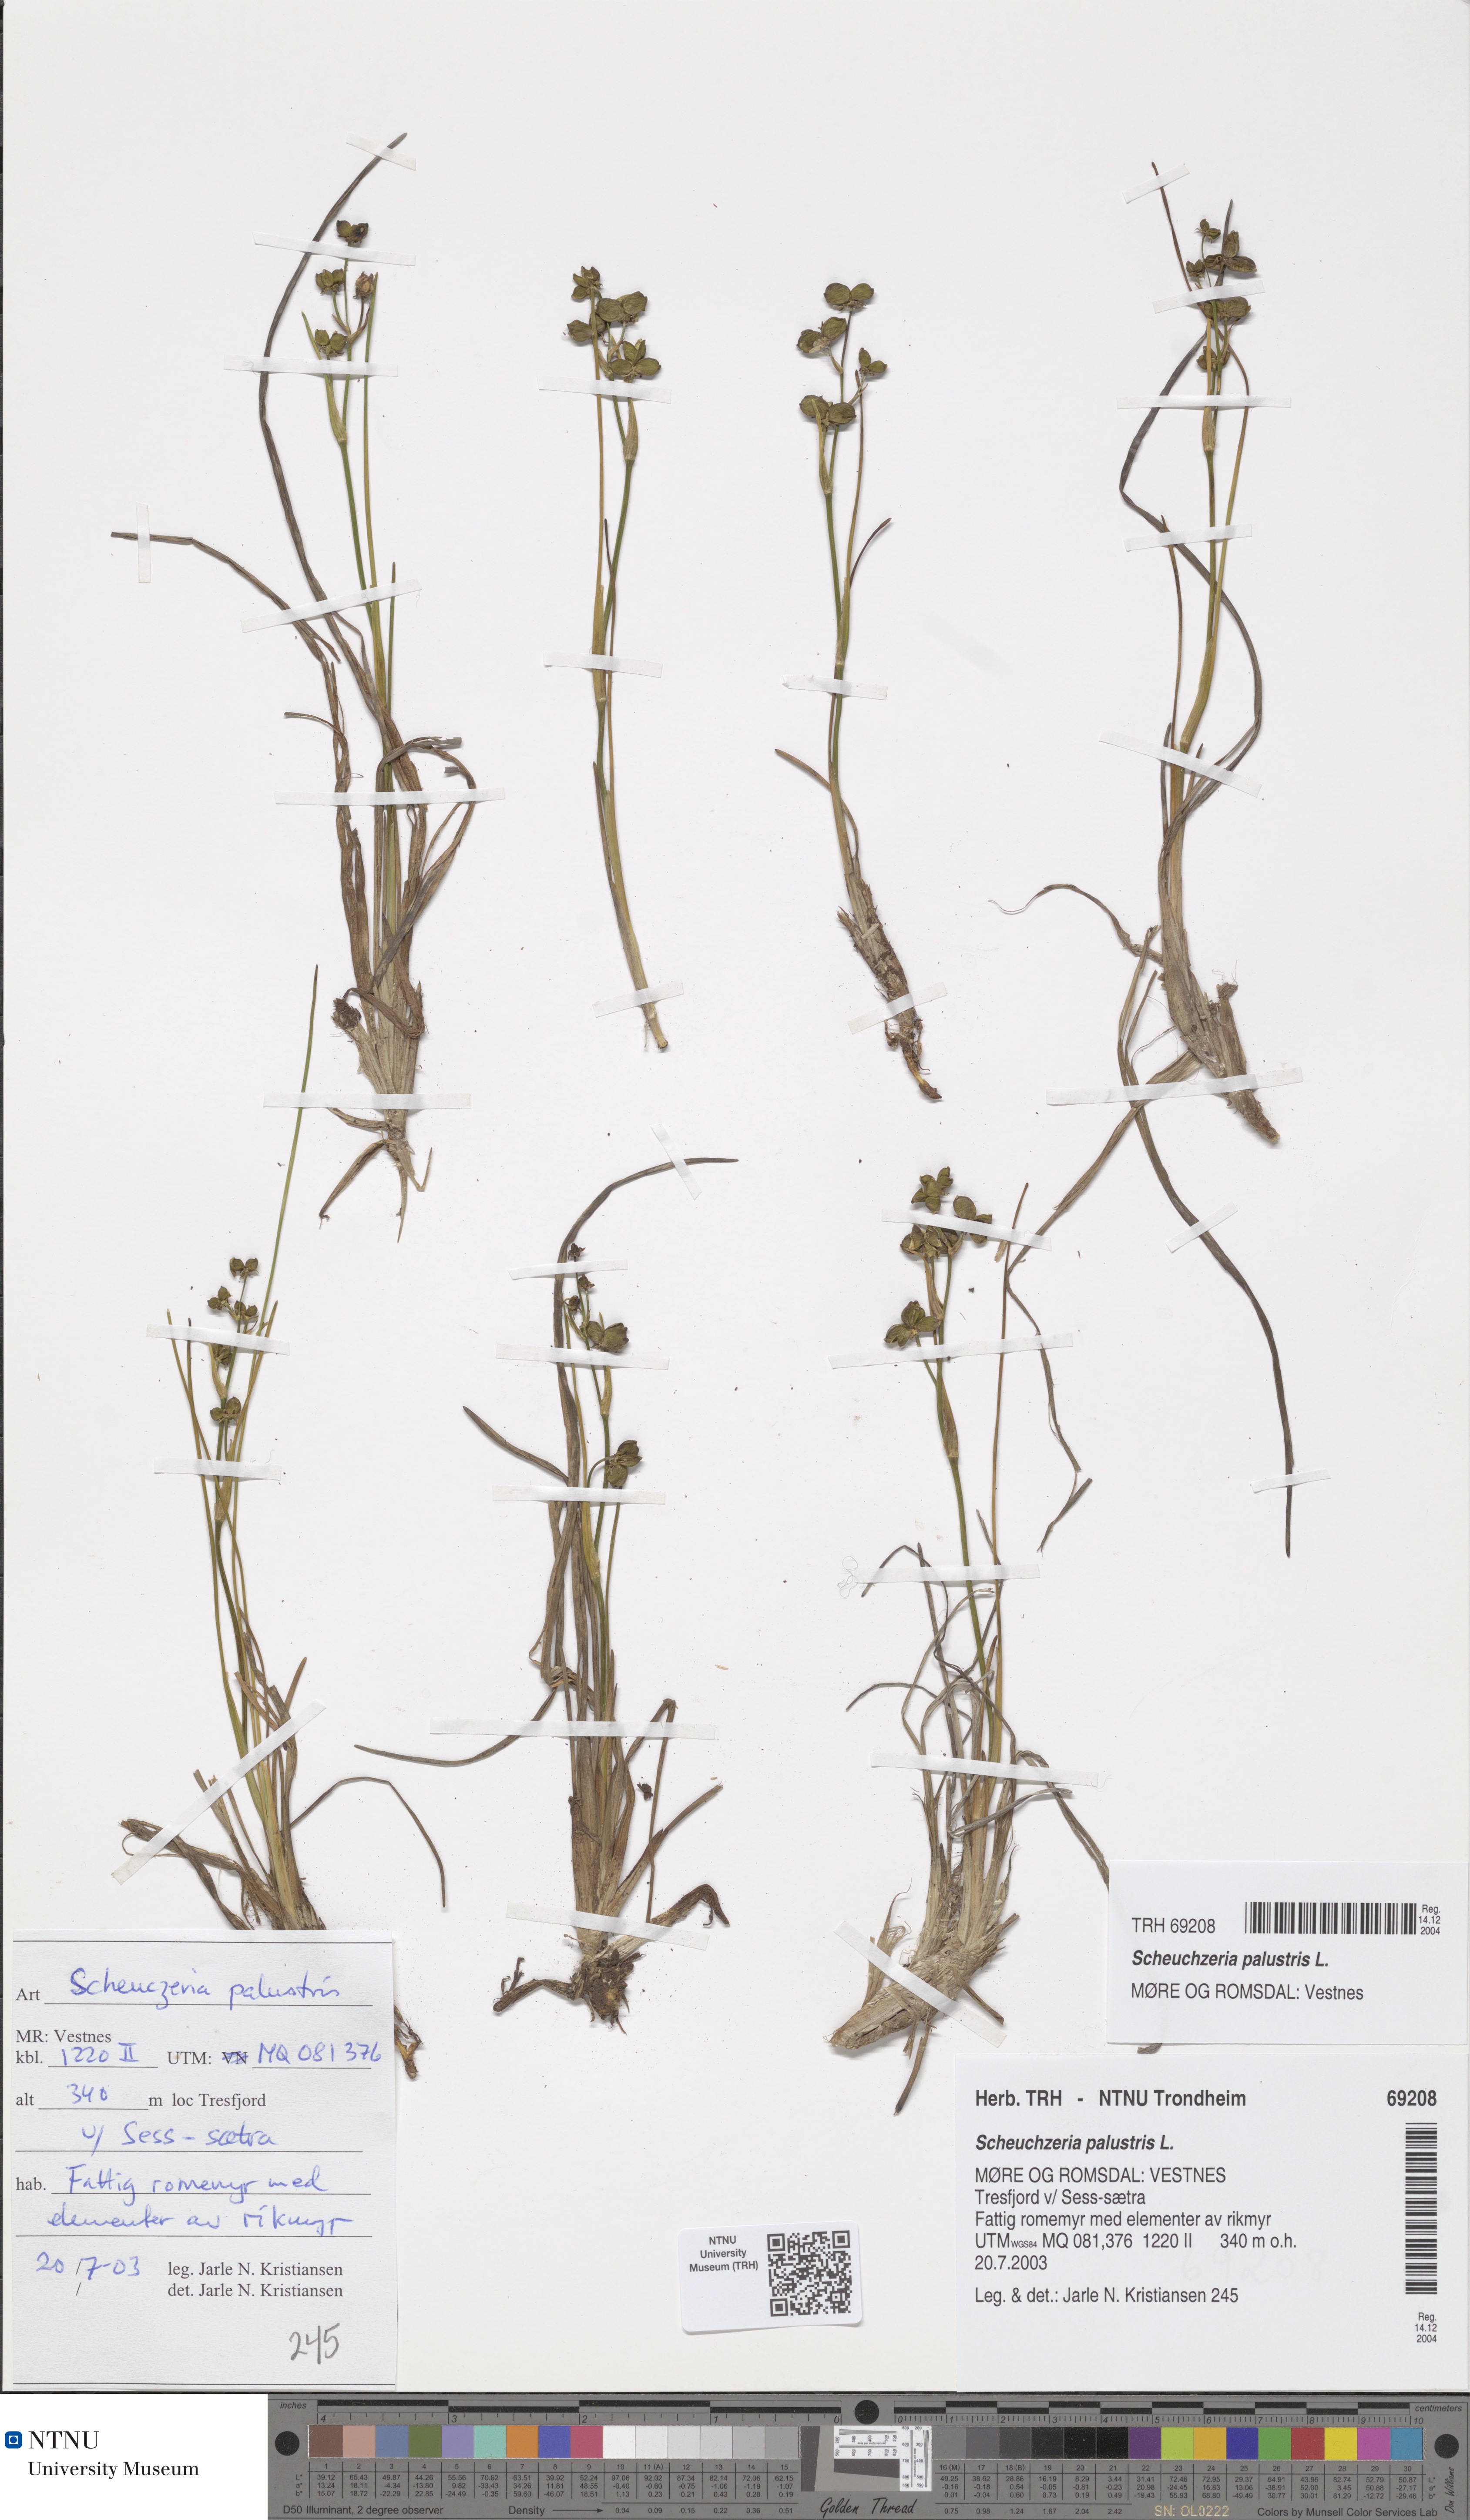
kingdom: Plantae
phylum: Tracheophyta
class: Liliopsida
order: Alismatales
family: Scheuchzeriaceae
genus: Scheuchzeria
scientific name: Scheuchzeria palustris
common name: Rannoch-rush
